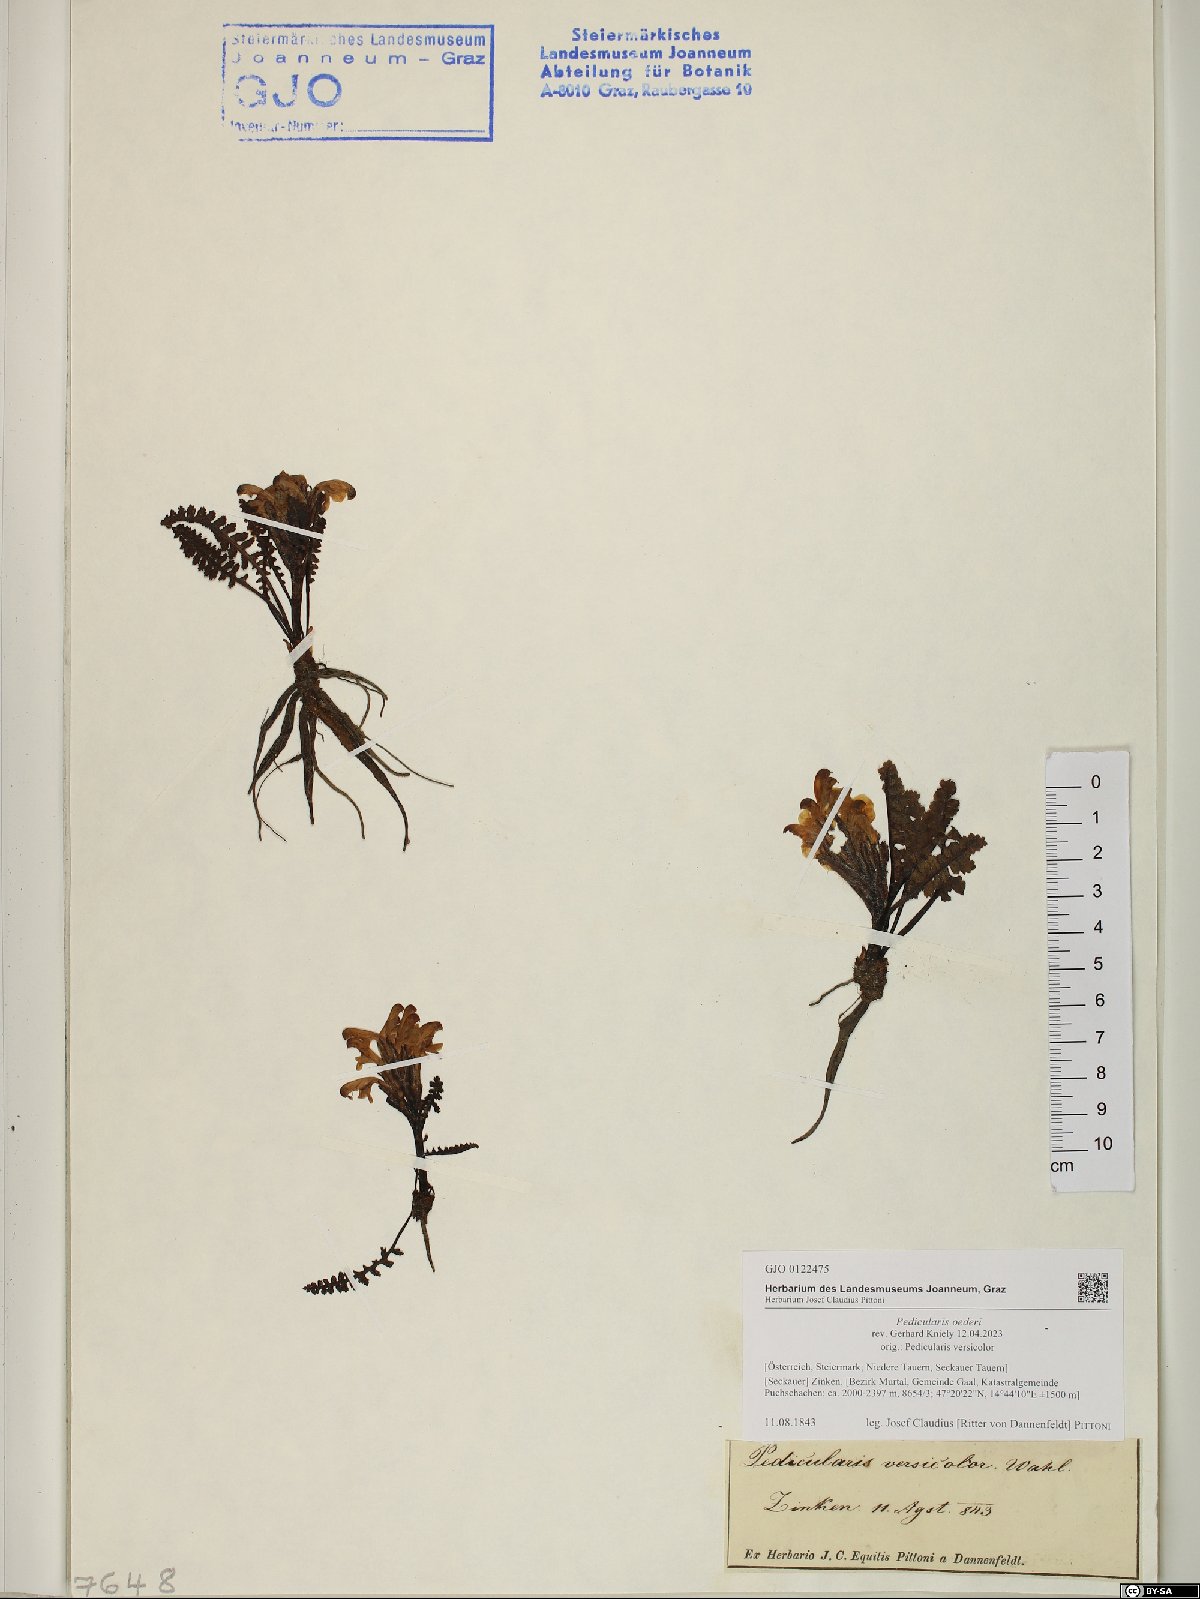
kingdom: Plantae
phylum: Tracheophyta
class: Magnoliopsida
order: Lamiales
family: Orobanchaceae
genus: Pedicularis
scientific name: Pedicularis oederi
